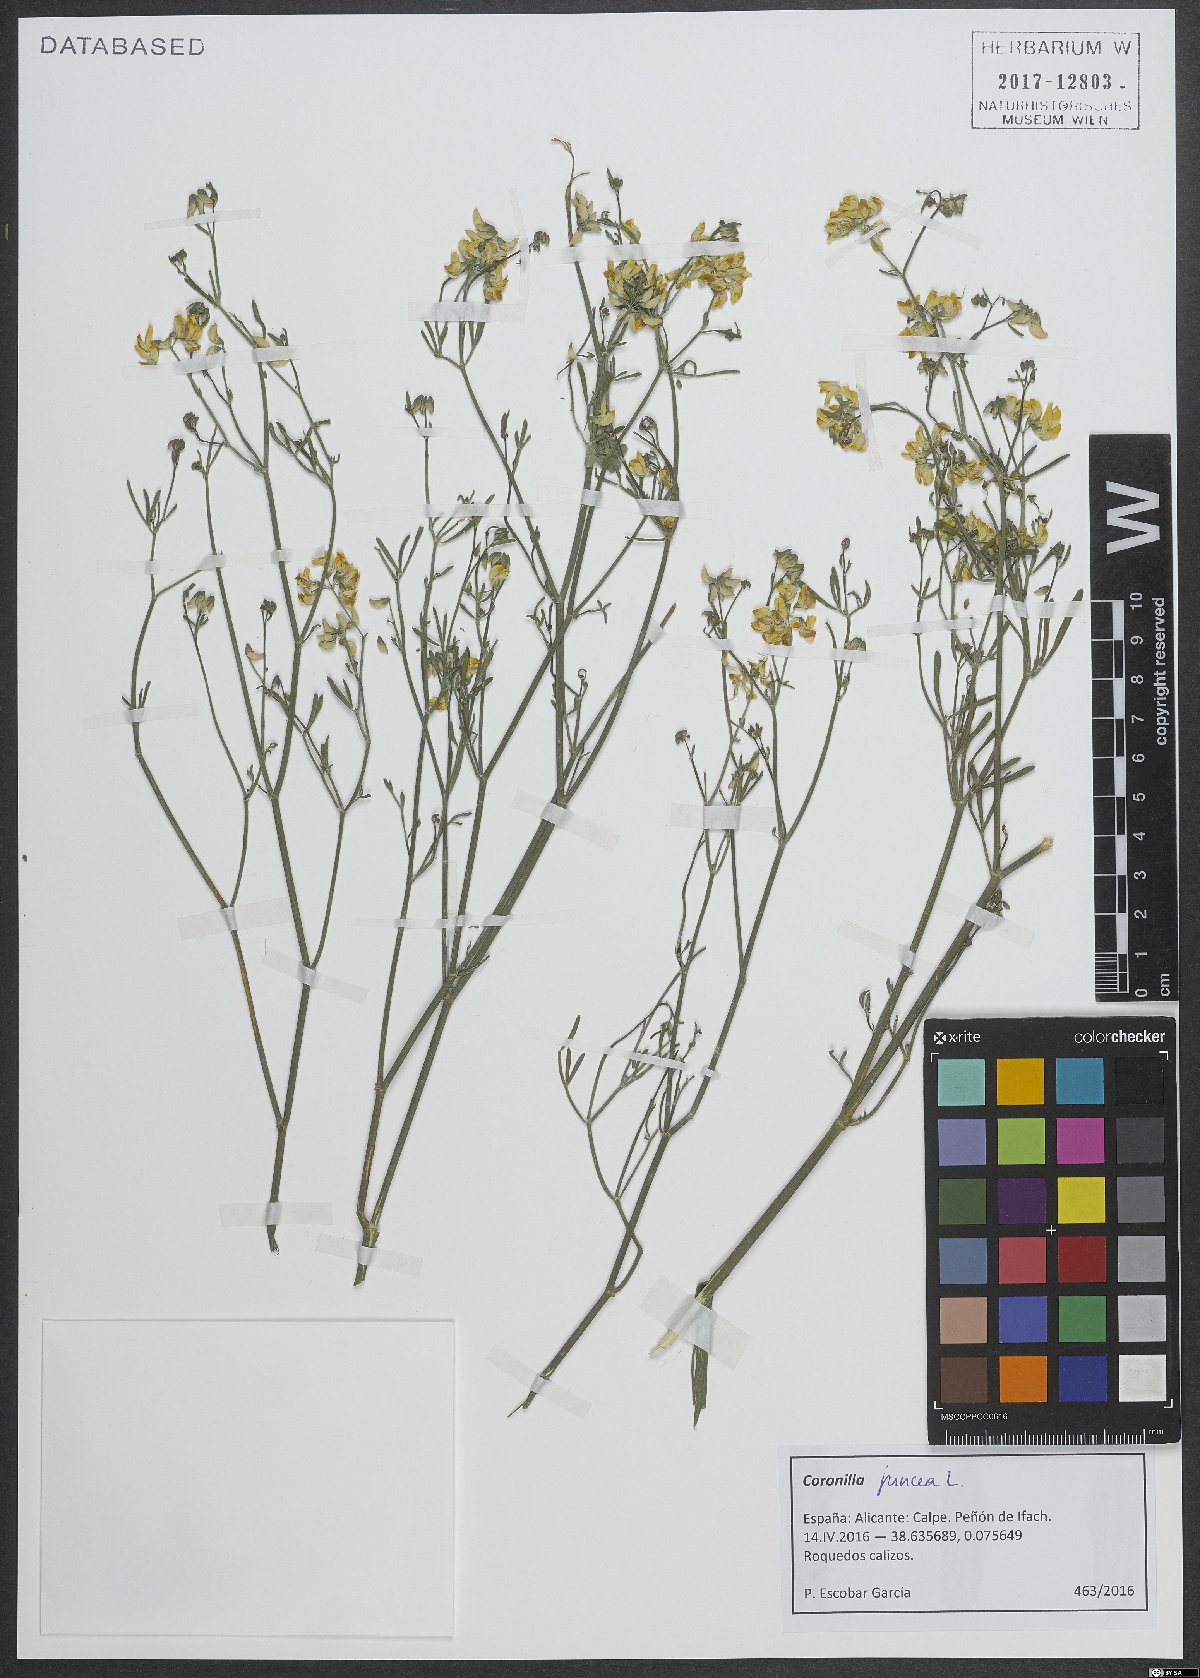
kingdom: Plantae
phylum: Tracheophyta
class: Magnoliopsida
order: Fabales
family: Fabaceae
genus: Coronilla
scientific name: Coronilla juncea
